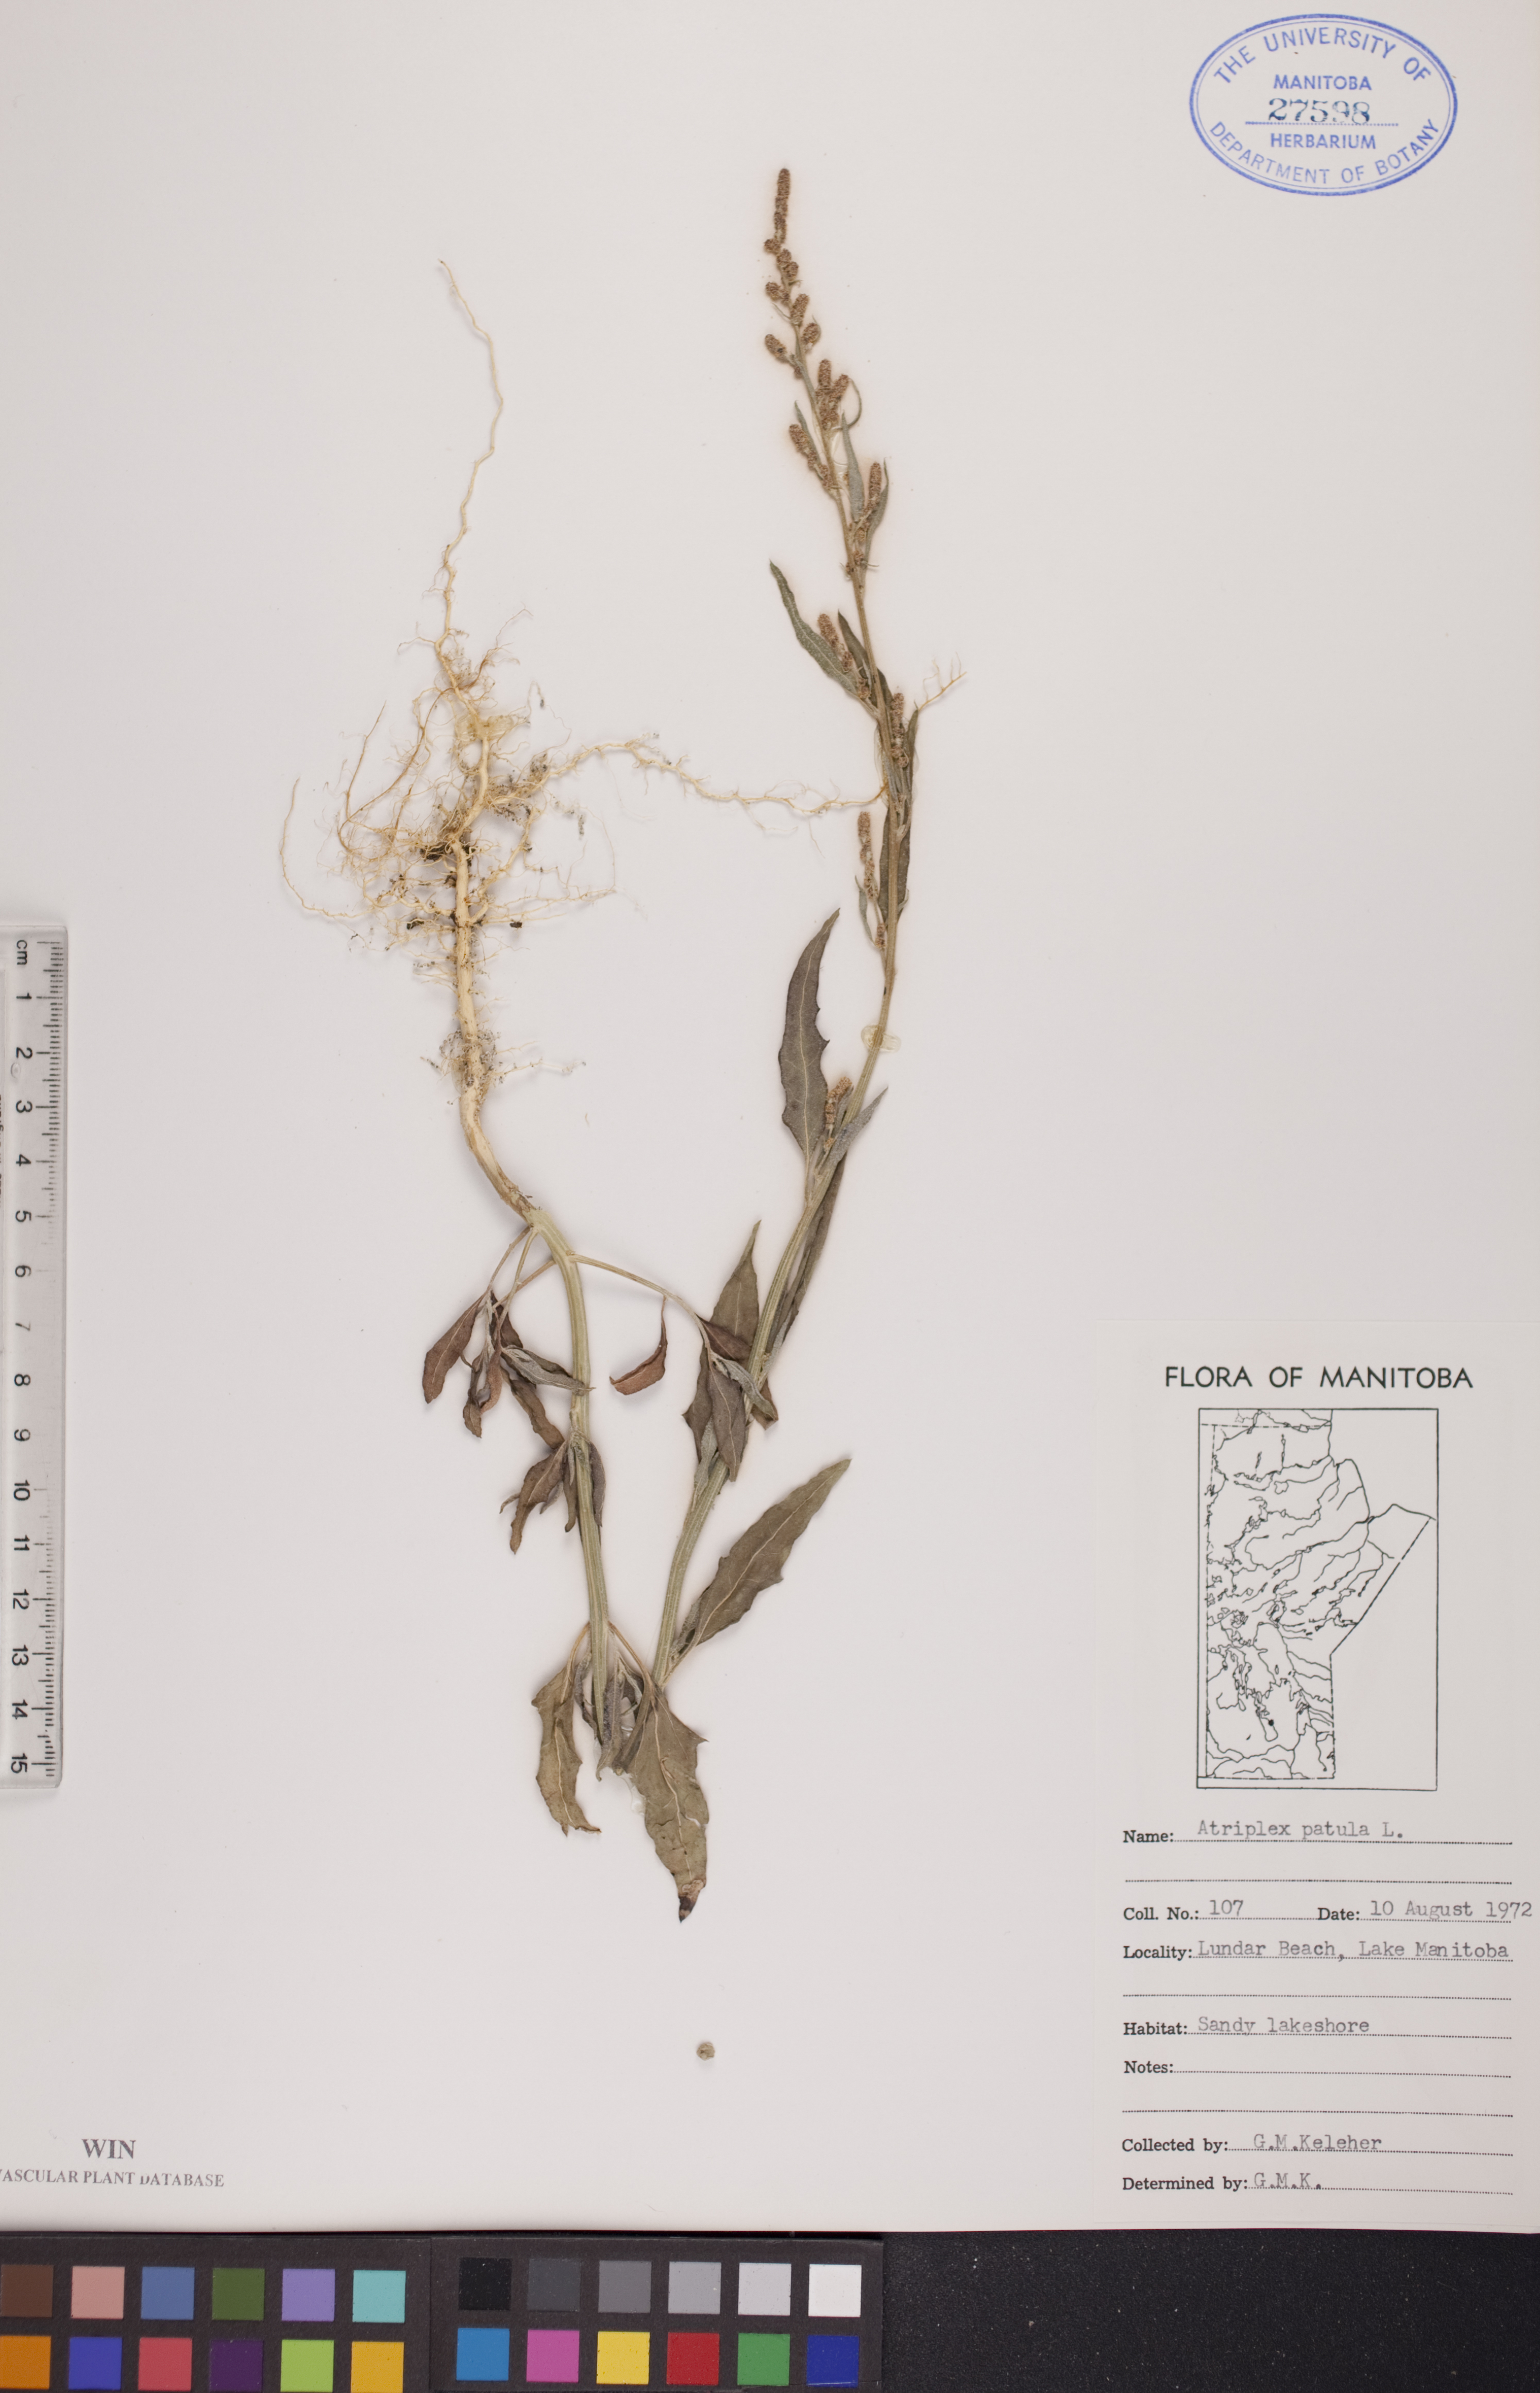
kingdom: Plantae
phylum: Tracheophyta
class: Magnoliopsida
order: Caryophyllales
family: Amaranthaceae
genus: Atriplex
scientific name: Atriplex patula
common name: Common orache
